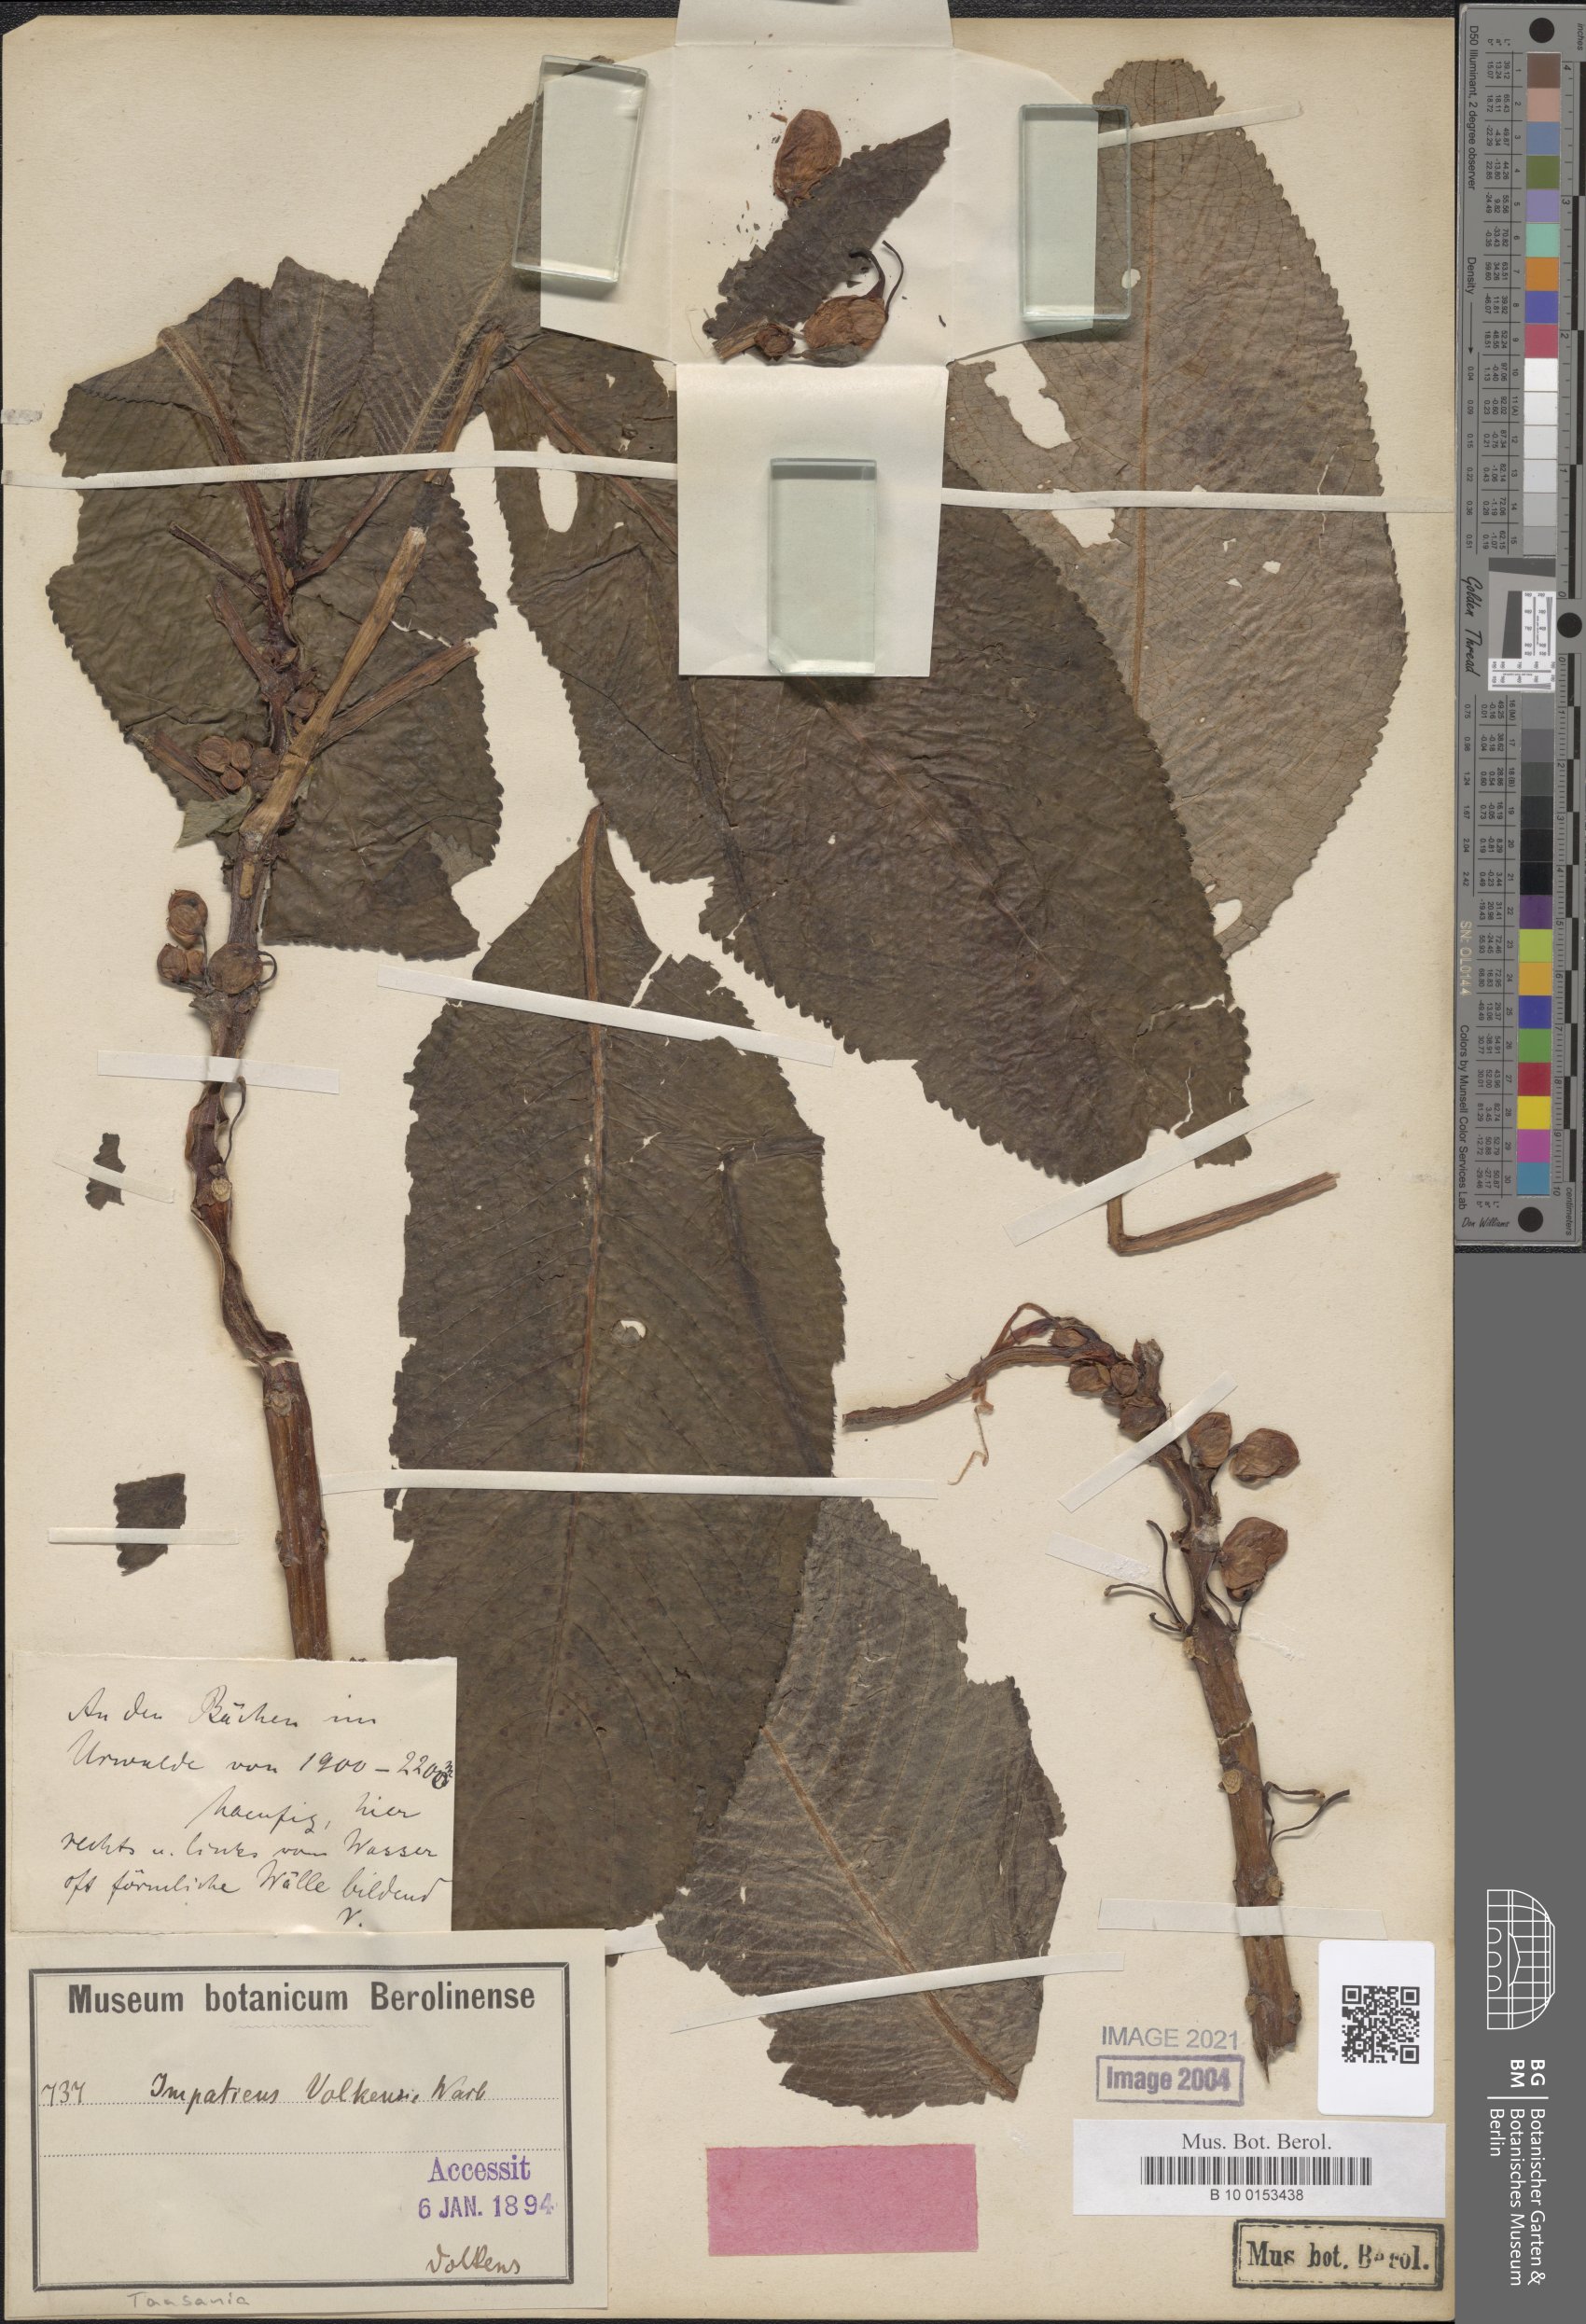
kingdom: Plantae
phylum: Tracheophyta
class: Magnoliopsida
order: Ericales
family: Balsaminaceae
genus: Impatiens
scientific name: Impatiens volkensii
